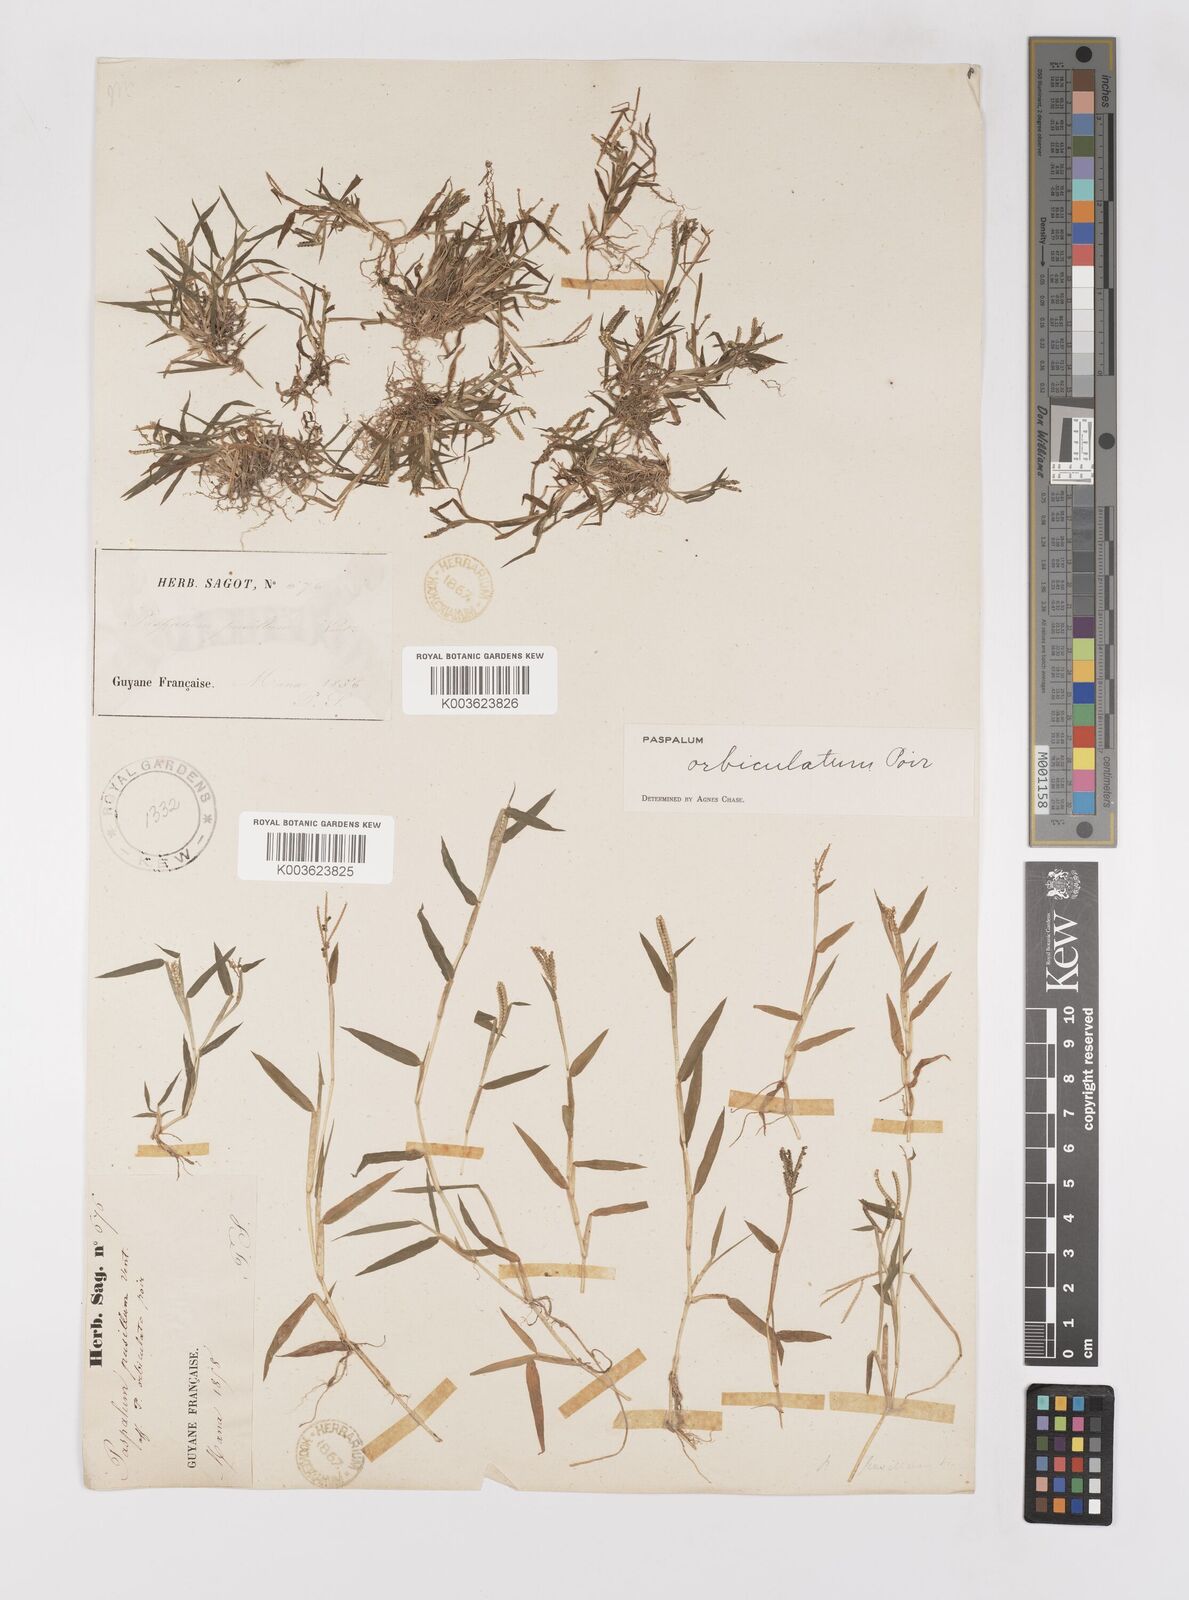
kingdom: Plantae
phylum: Tracheophyta
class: Liliopsida
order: Poales
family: Poaceae
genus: Paspalum
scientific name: Paspalum orbiculatum
